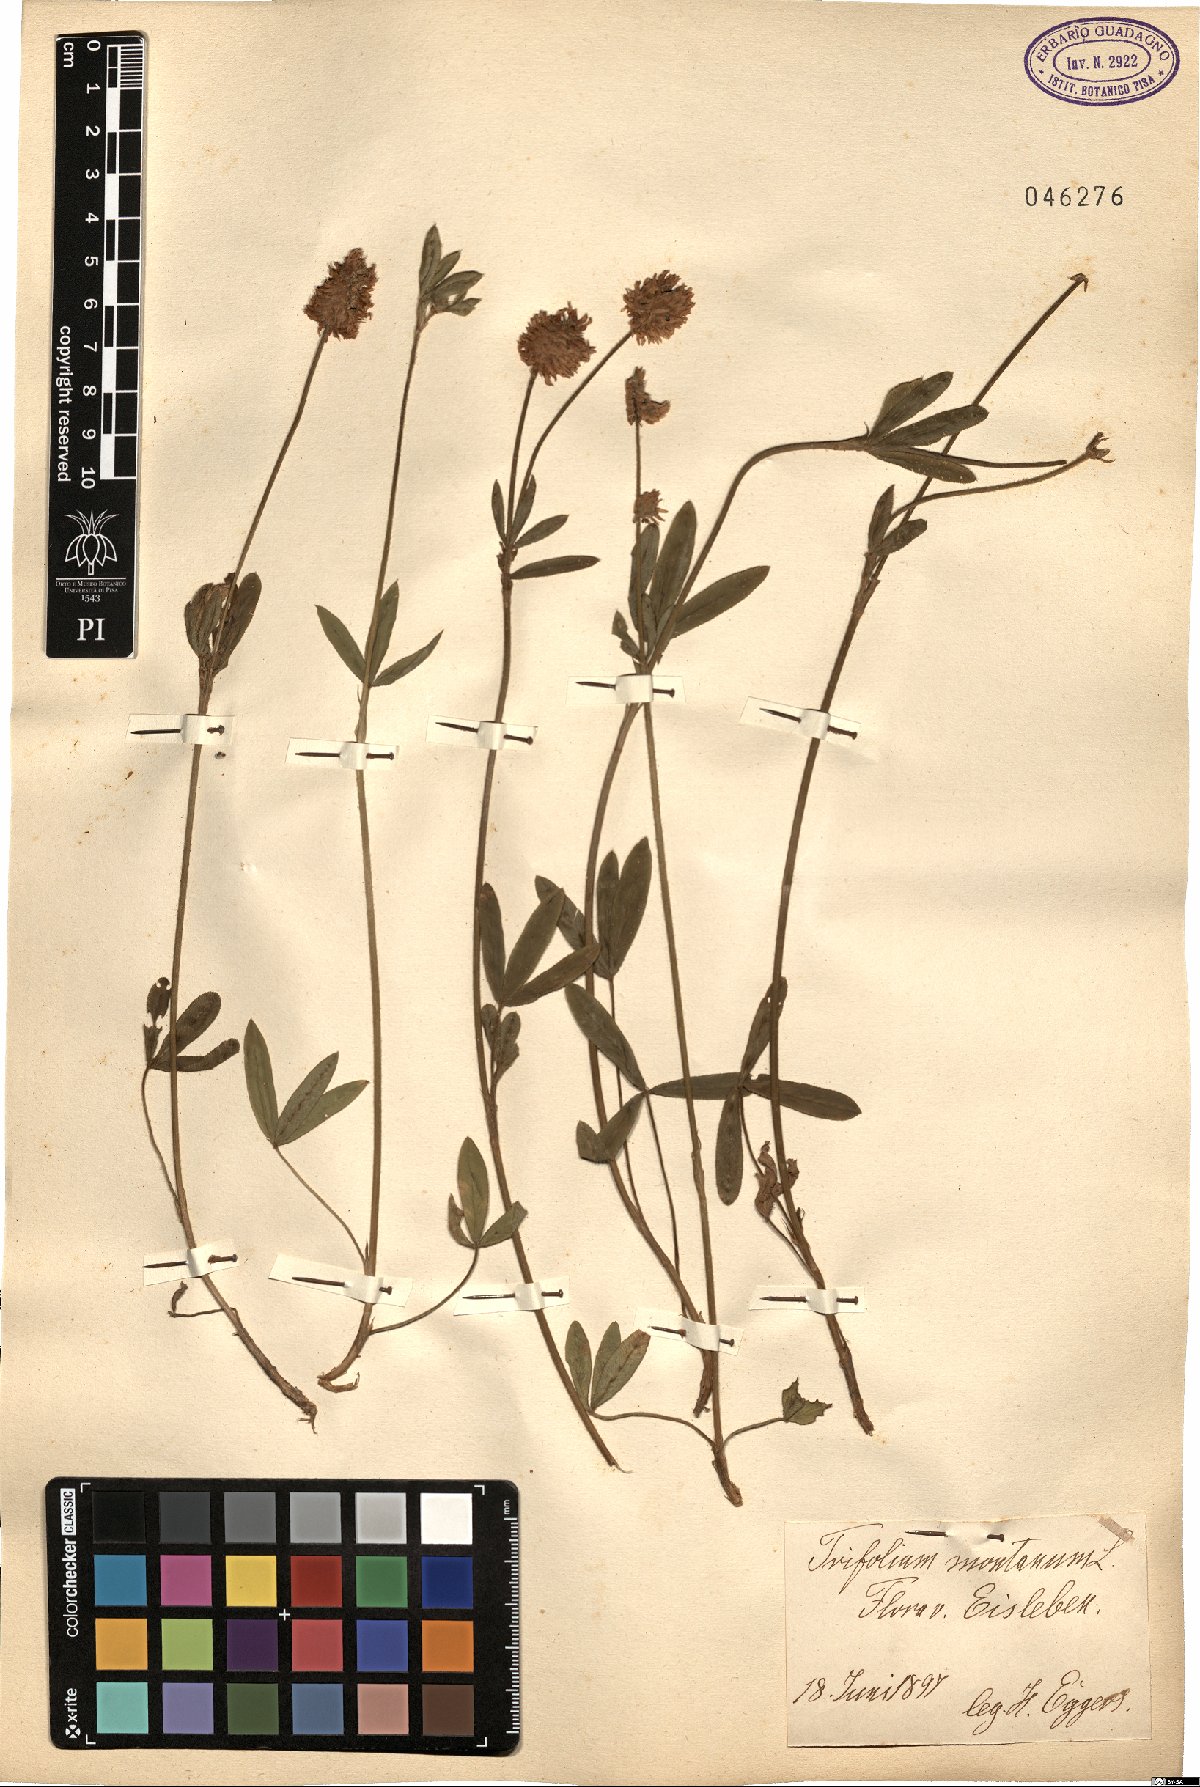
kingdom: Plantae
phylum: Tracheophyta
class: Magnoliopsida
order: Fabales
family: Fabaceae
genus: Trifolium
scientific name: Trifolium montanum
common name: Mountain clover
